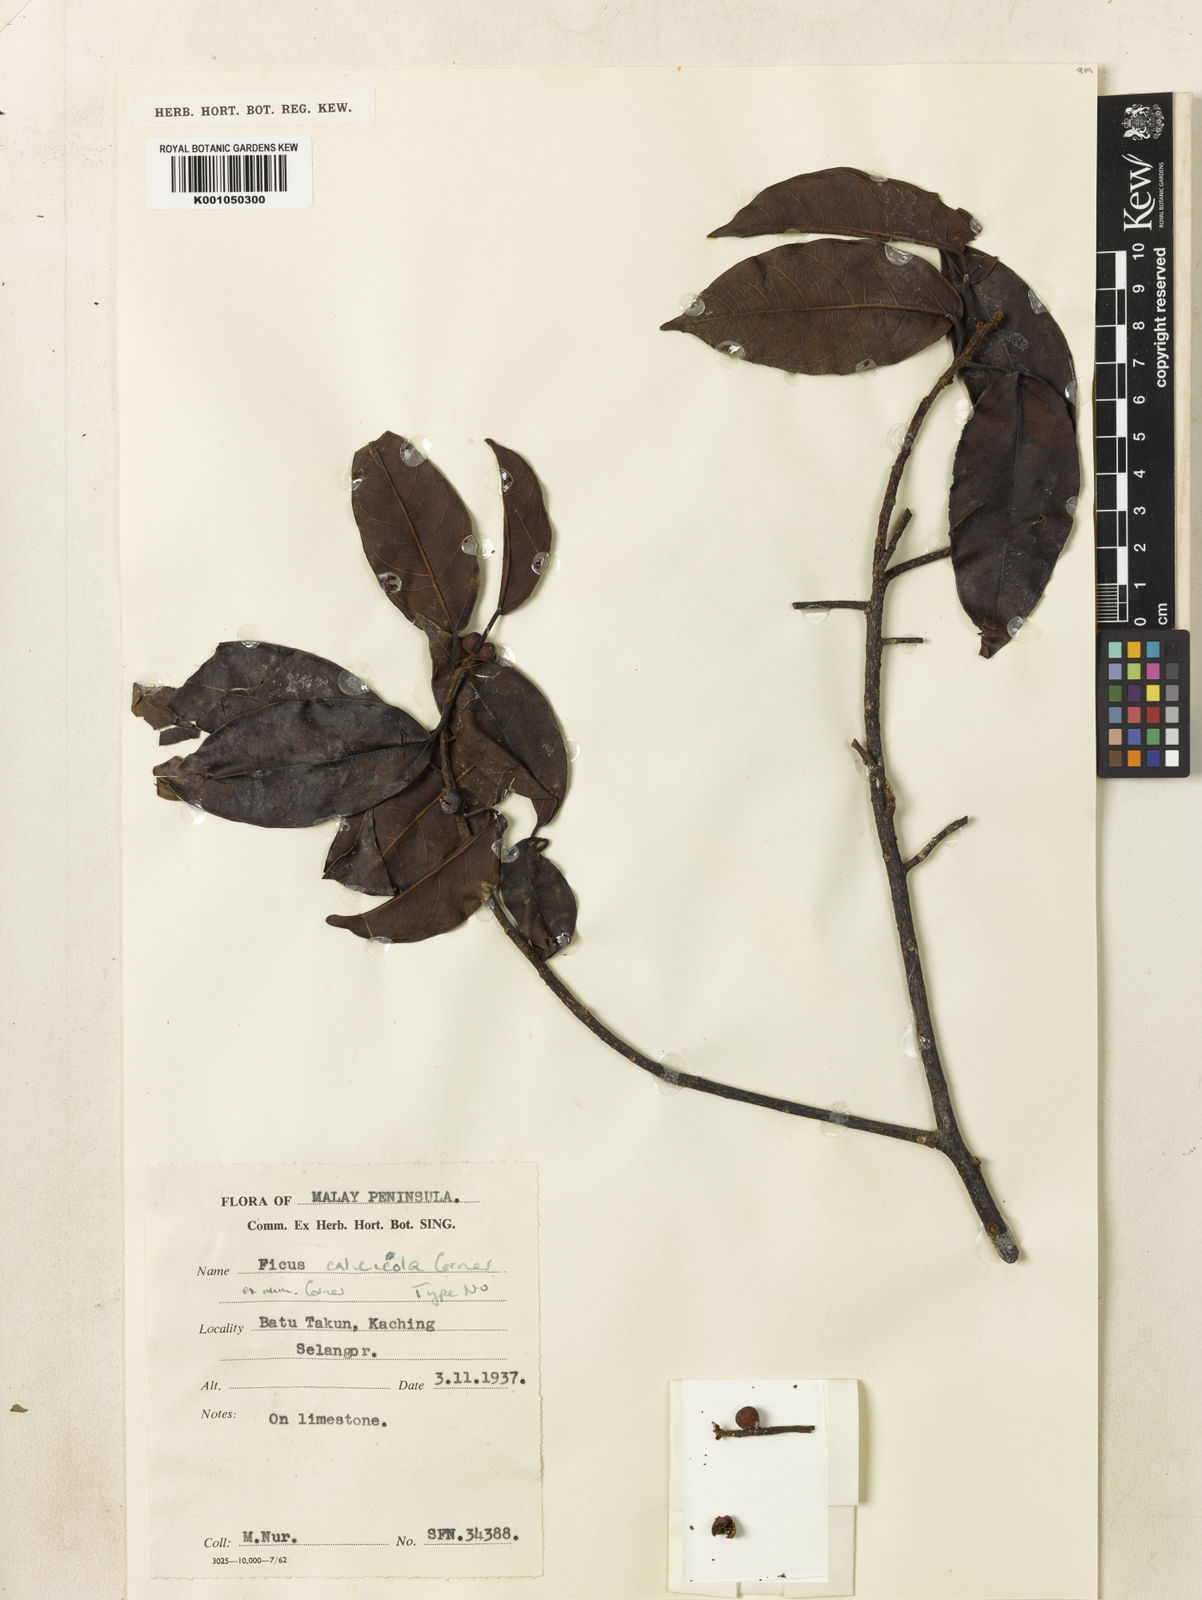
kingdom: Plantae
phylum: Tracheophyta
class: Magnoliopsida
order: Rosales
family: Moraceae
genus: Ficus
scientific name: Ficus calcicola
